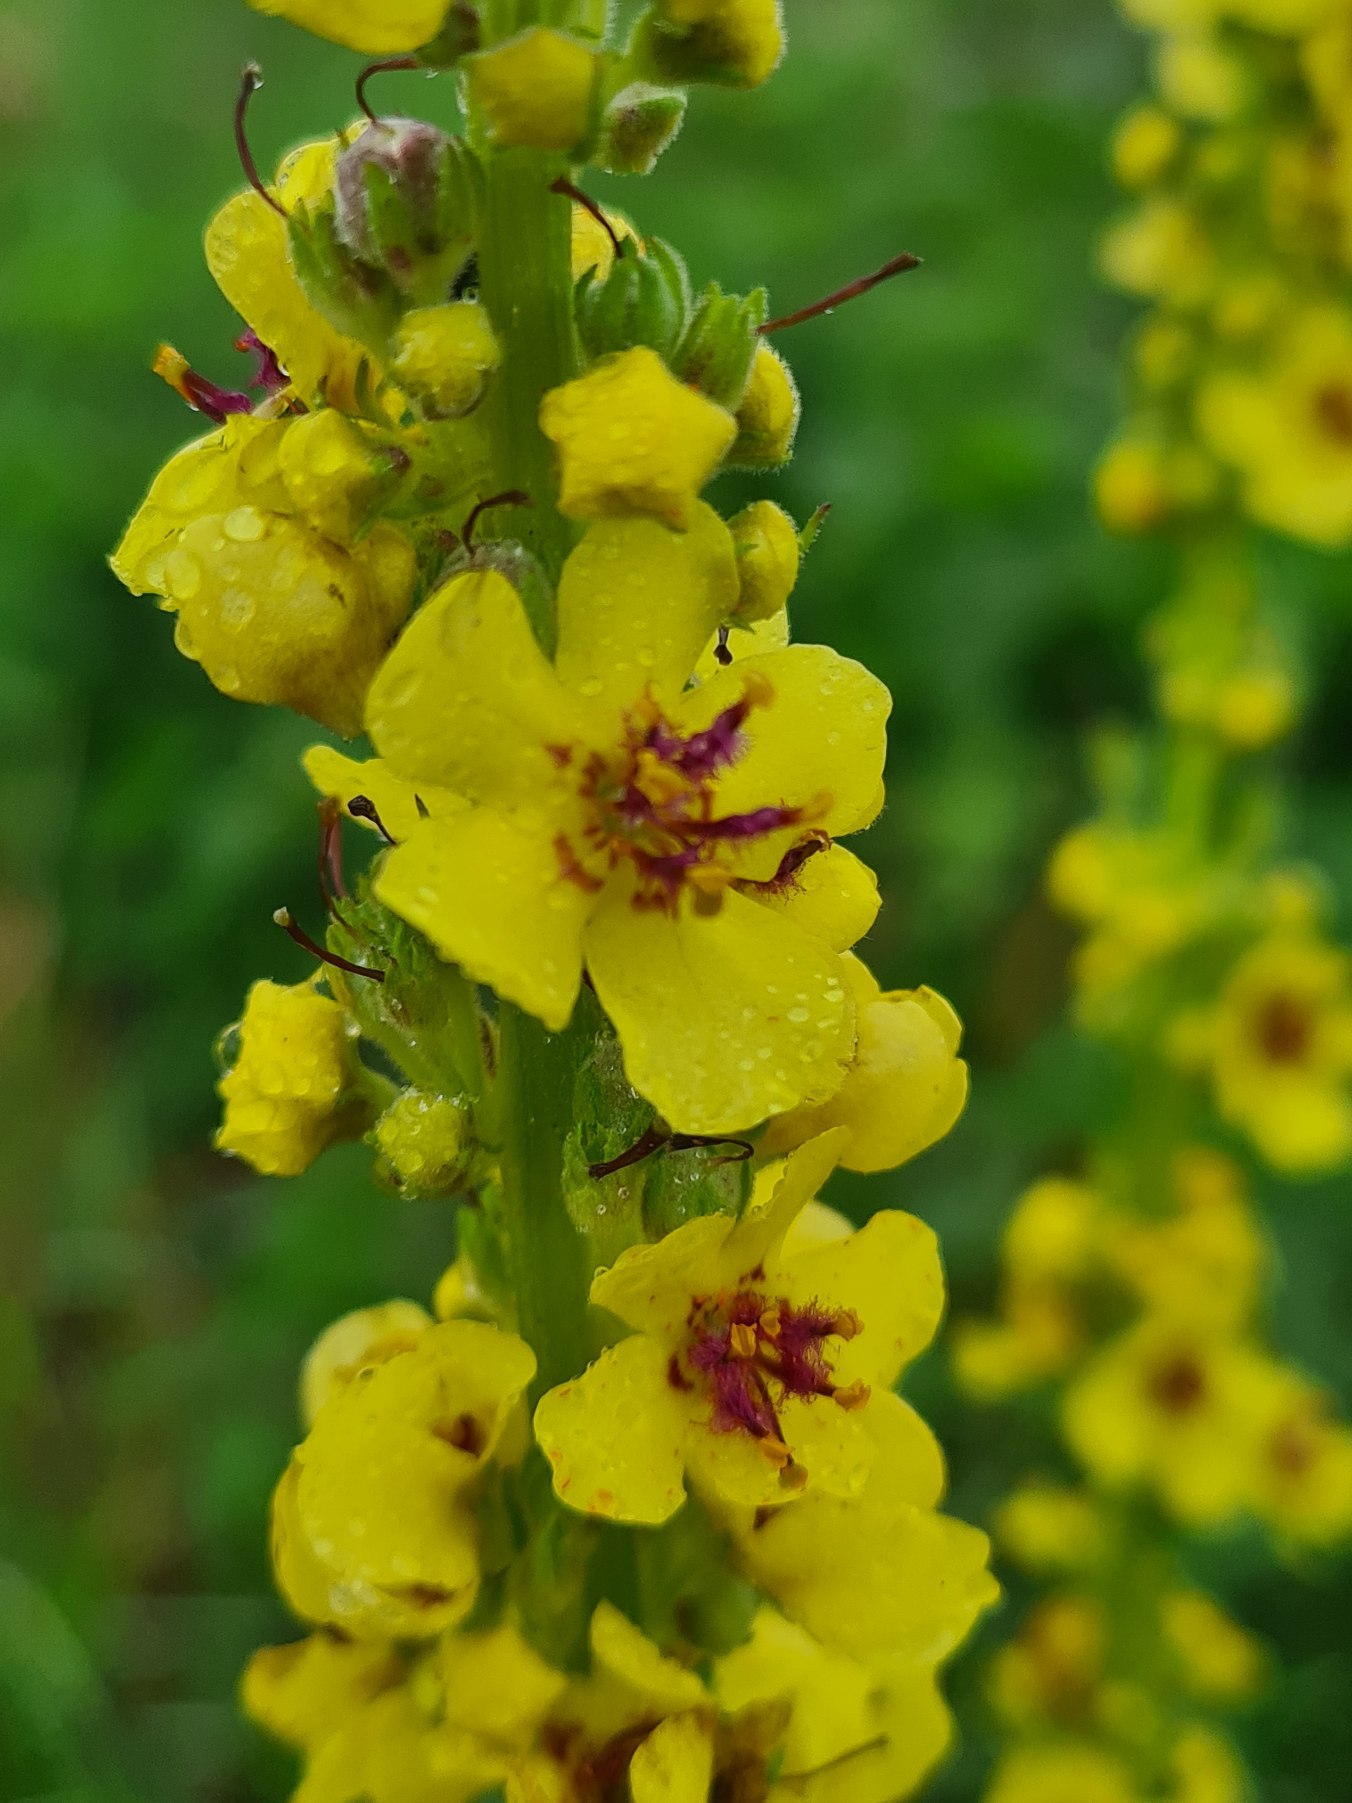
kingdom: Plantae
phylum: Tracheophyta
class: Magnoliopsida
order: Lamiales
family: Scrophulariaceae
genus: Verbascum
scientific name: Verbascum nigrum
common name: Mørk kongelys
